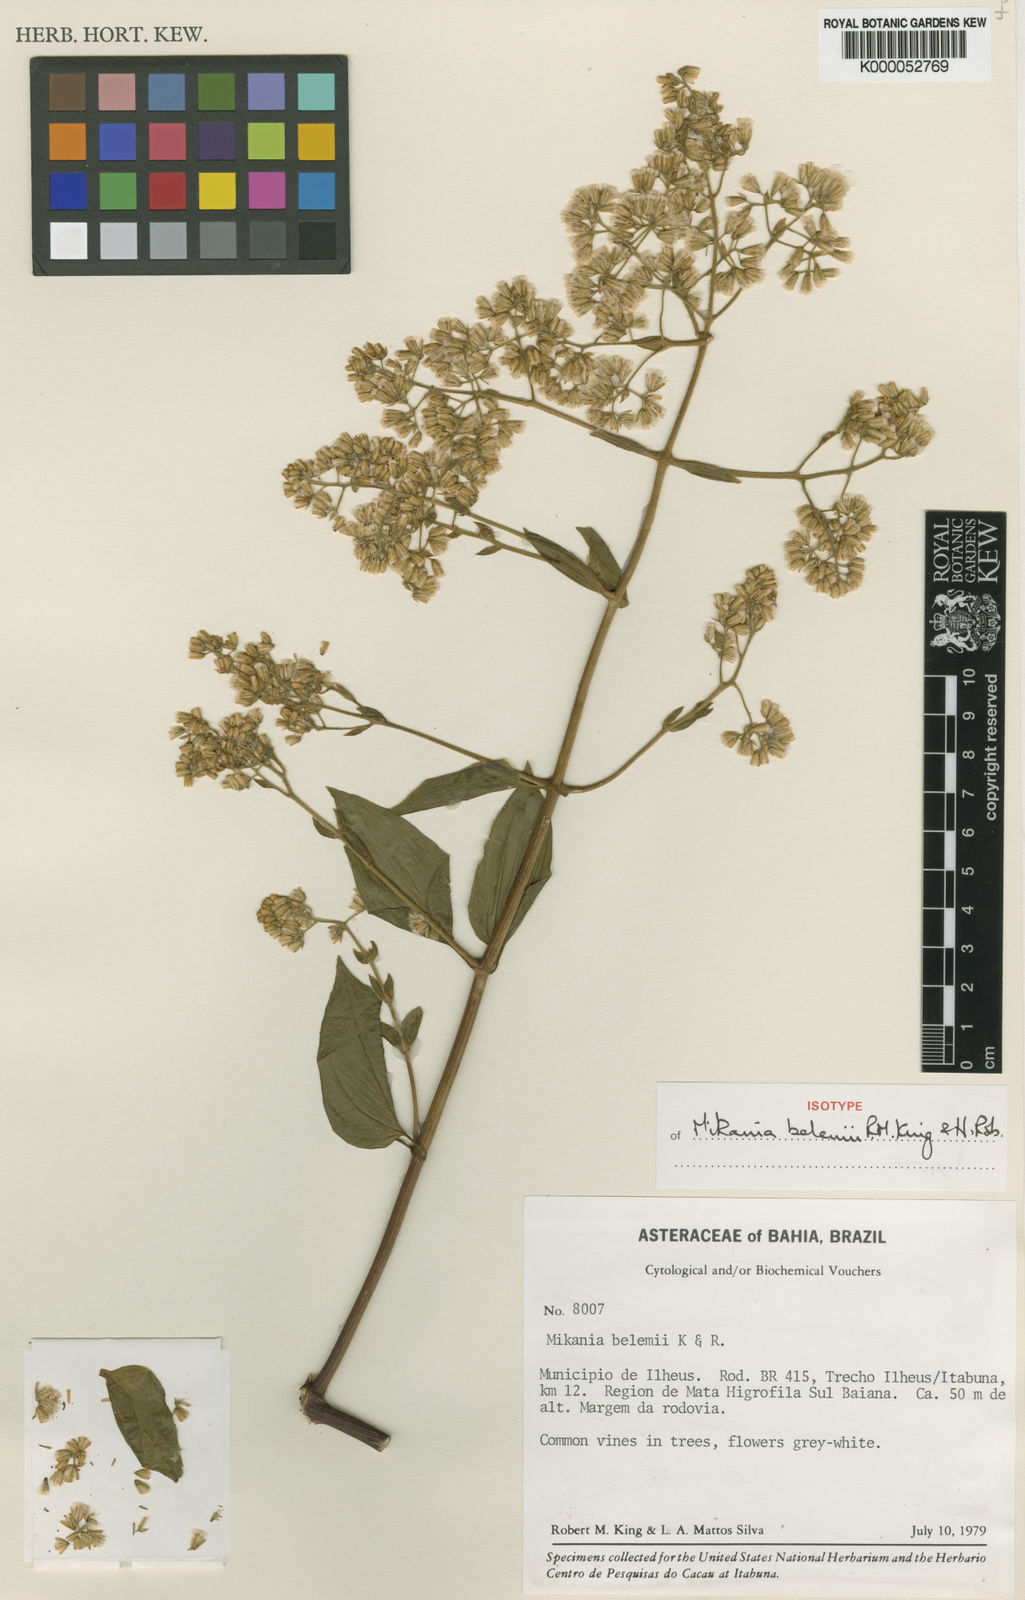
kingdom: Plantae
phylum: Tracheophyta
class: Magnoliopsida
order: Asterales
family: Asteraceae
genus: Mikania
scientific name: Mikania belemii
